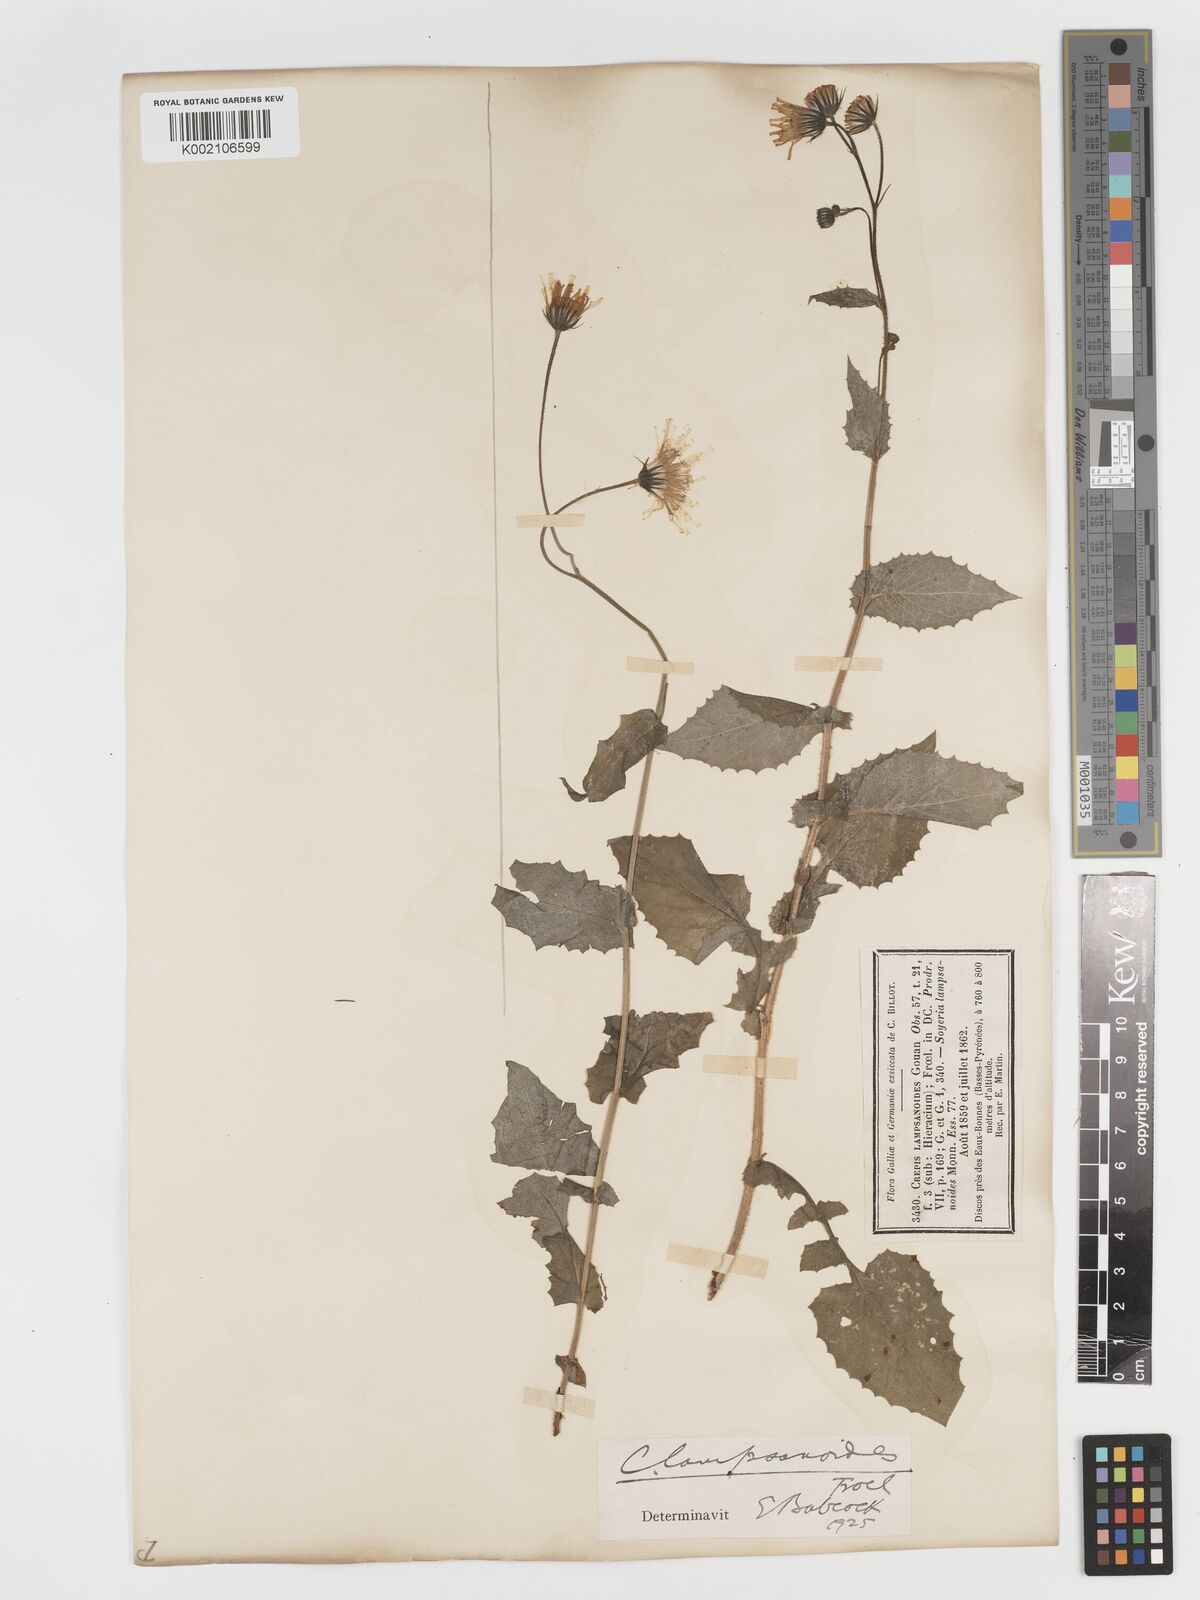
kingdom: Plantae
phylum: Tracheophyta
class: Magnoliopsida
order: Asterales
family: Asteraceae
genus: Crepis
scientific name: Crepis lampsanoides
